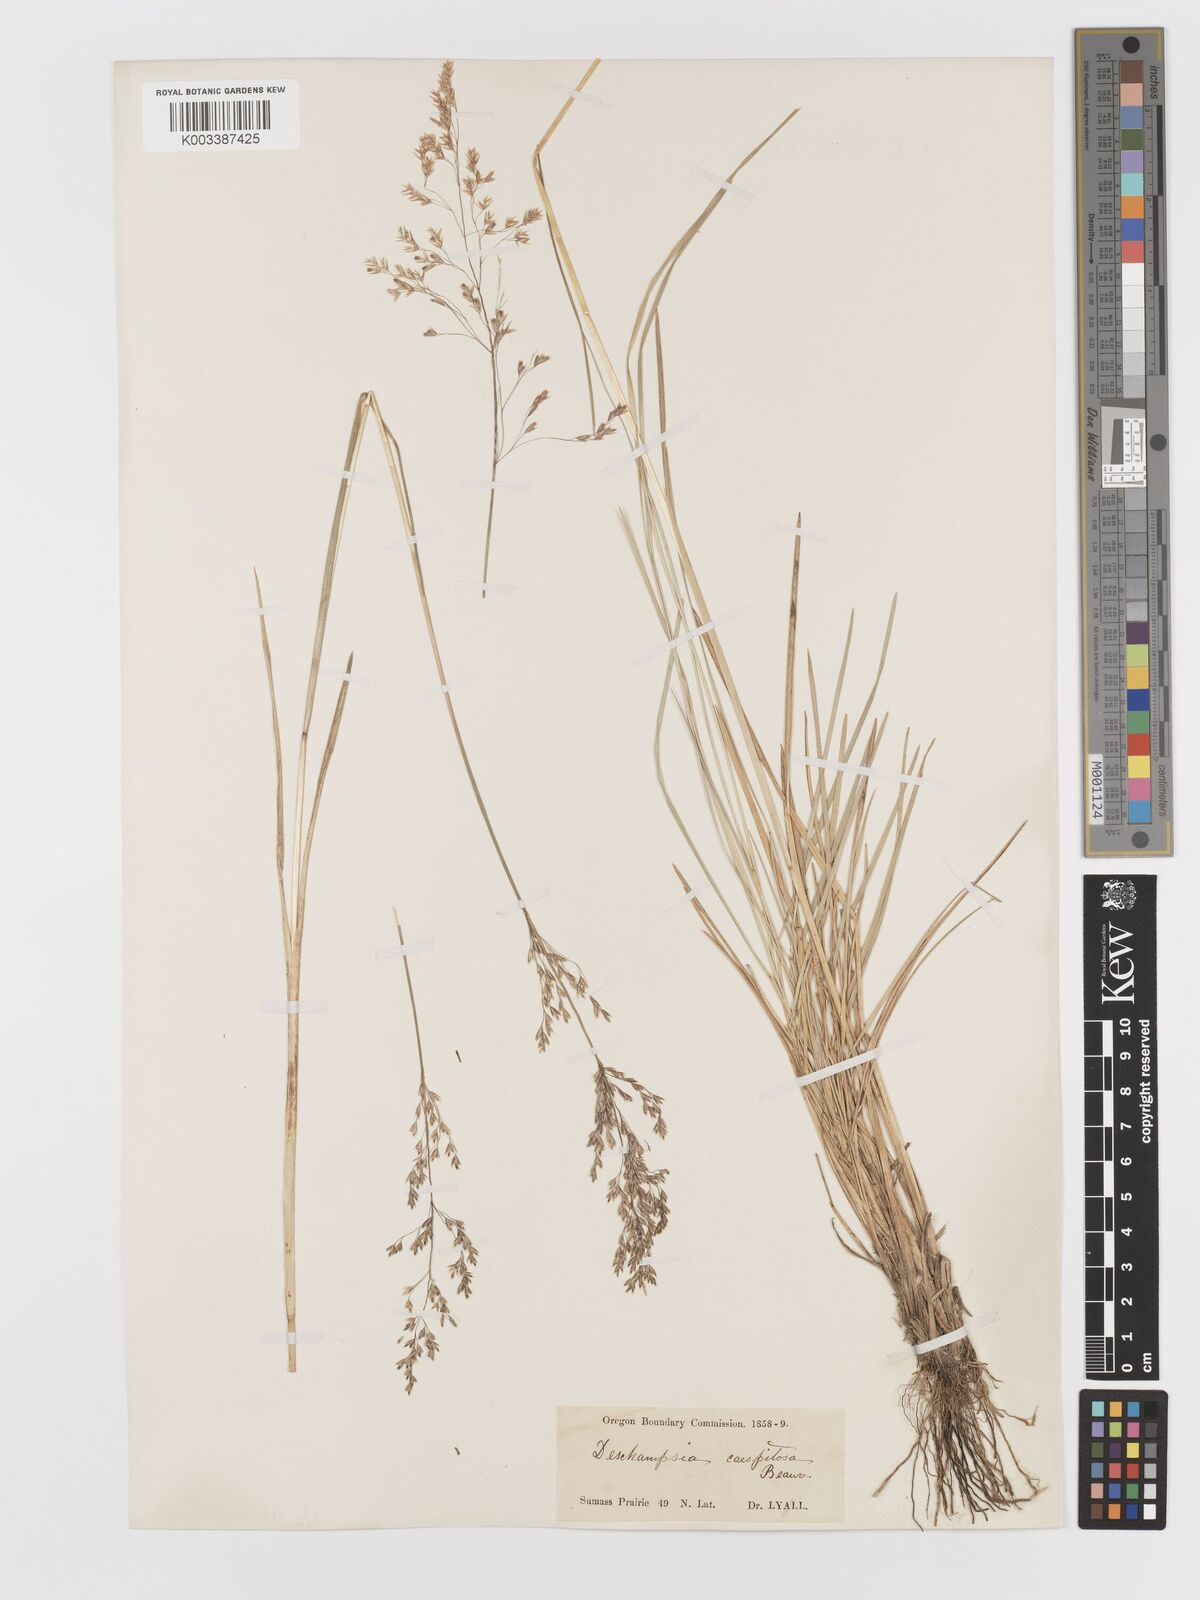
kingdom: Plantae
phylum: Tracheophyta
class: Liliopsida
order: Poales
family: Poaceae
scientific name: Poaceae
